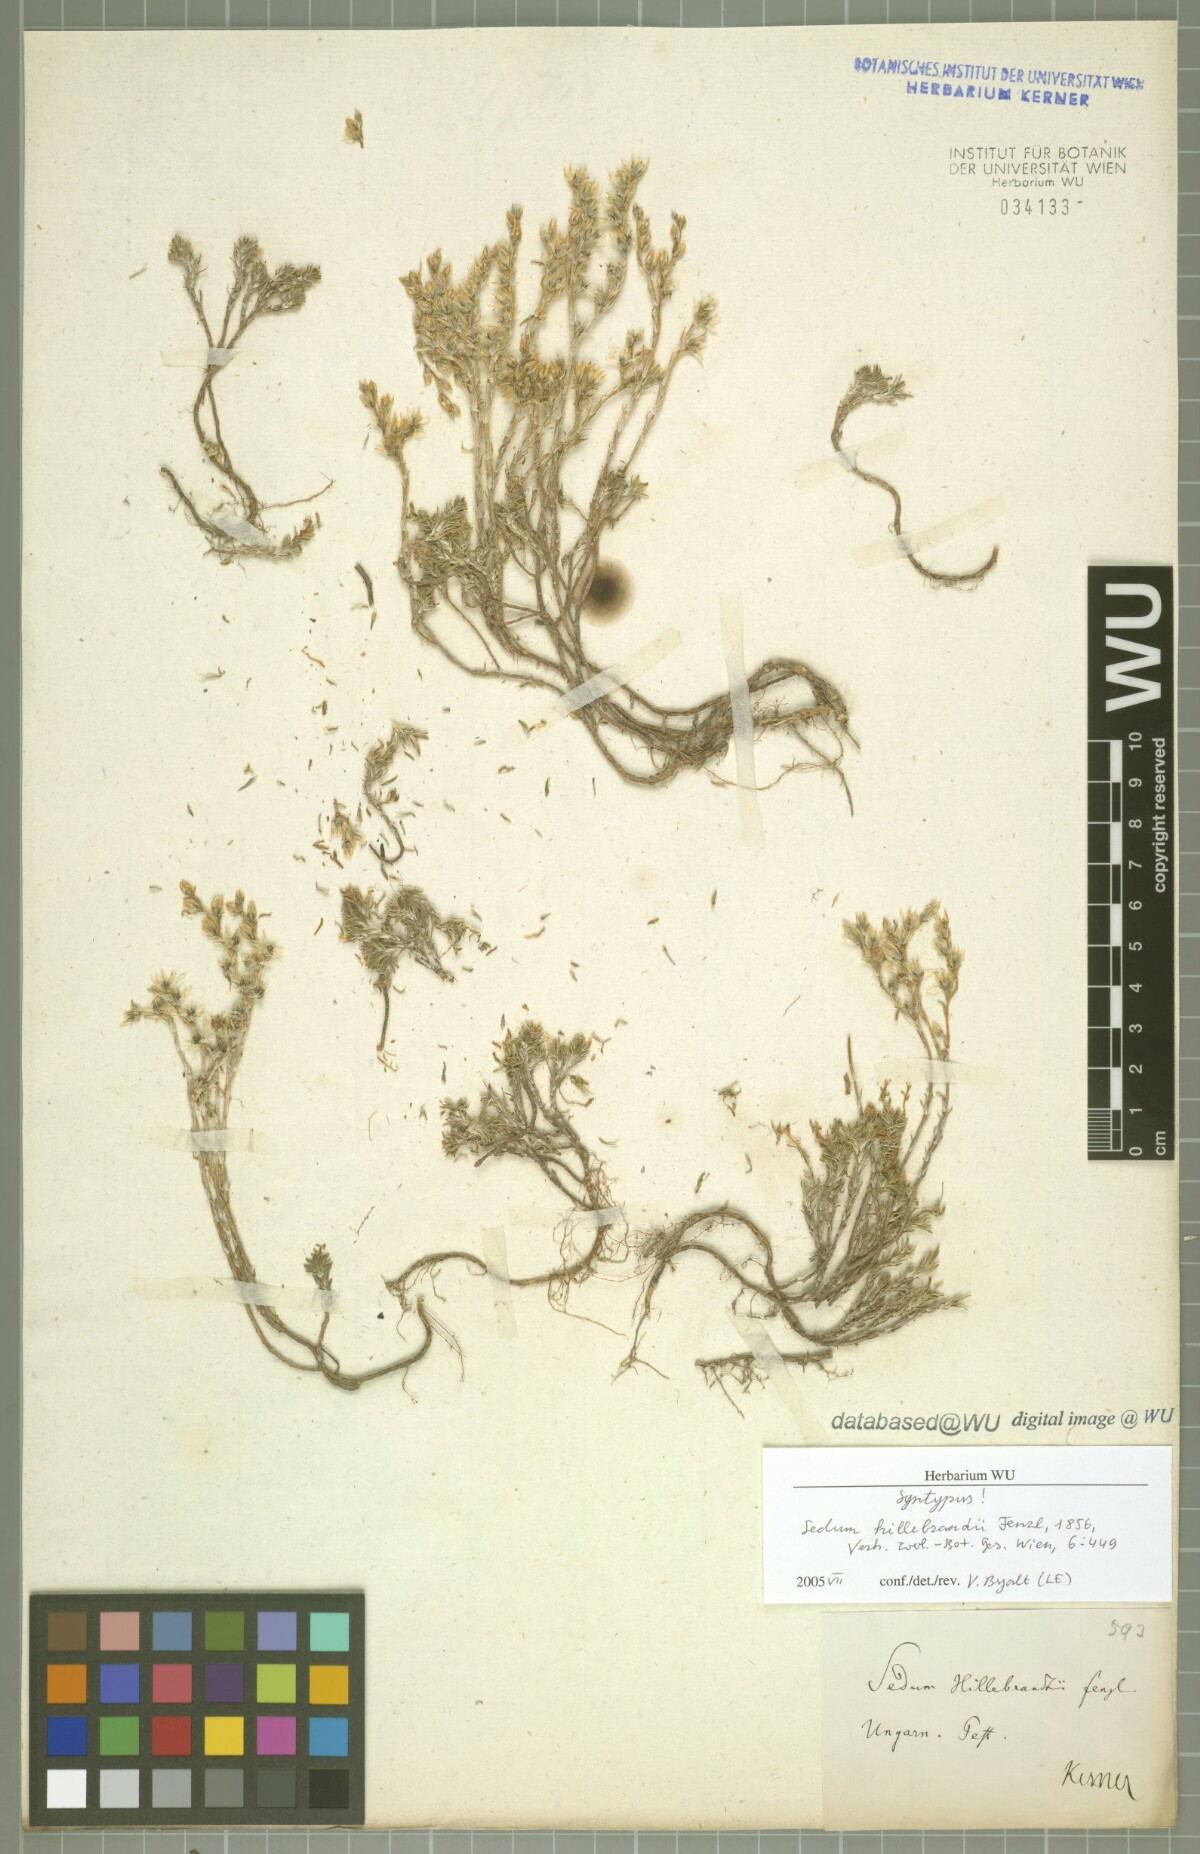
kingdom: Plantae
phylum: Tracheophyta
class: Magnoliopsida
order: Saxifragales
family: Crassulaceae
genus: Sedum
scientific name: Sedum urvillei
